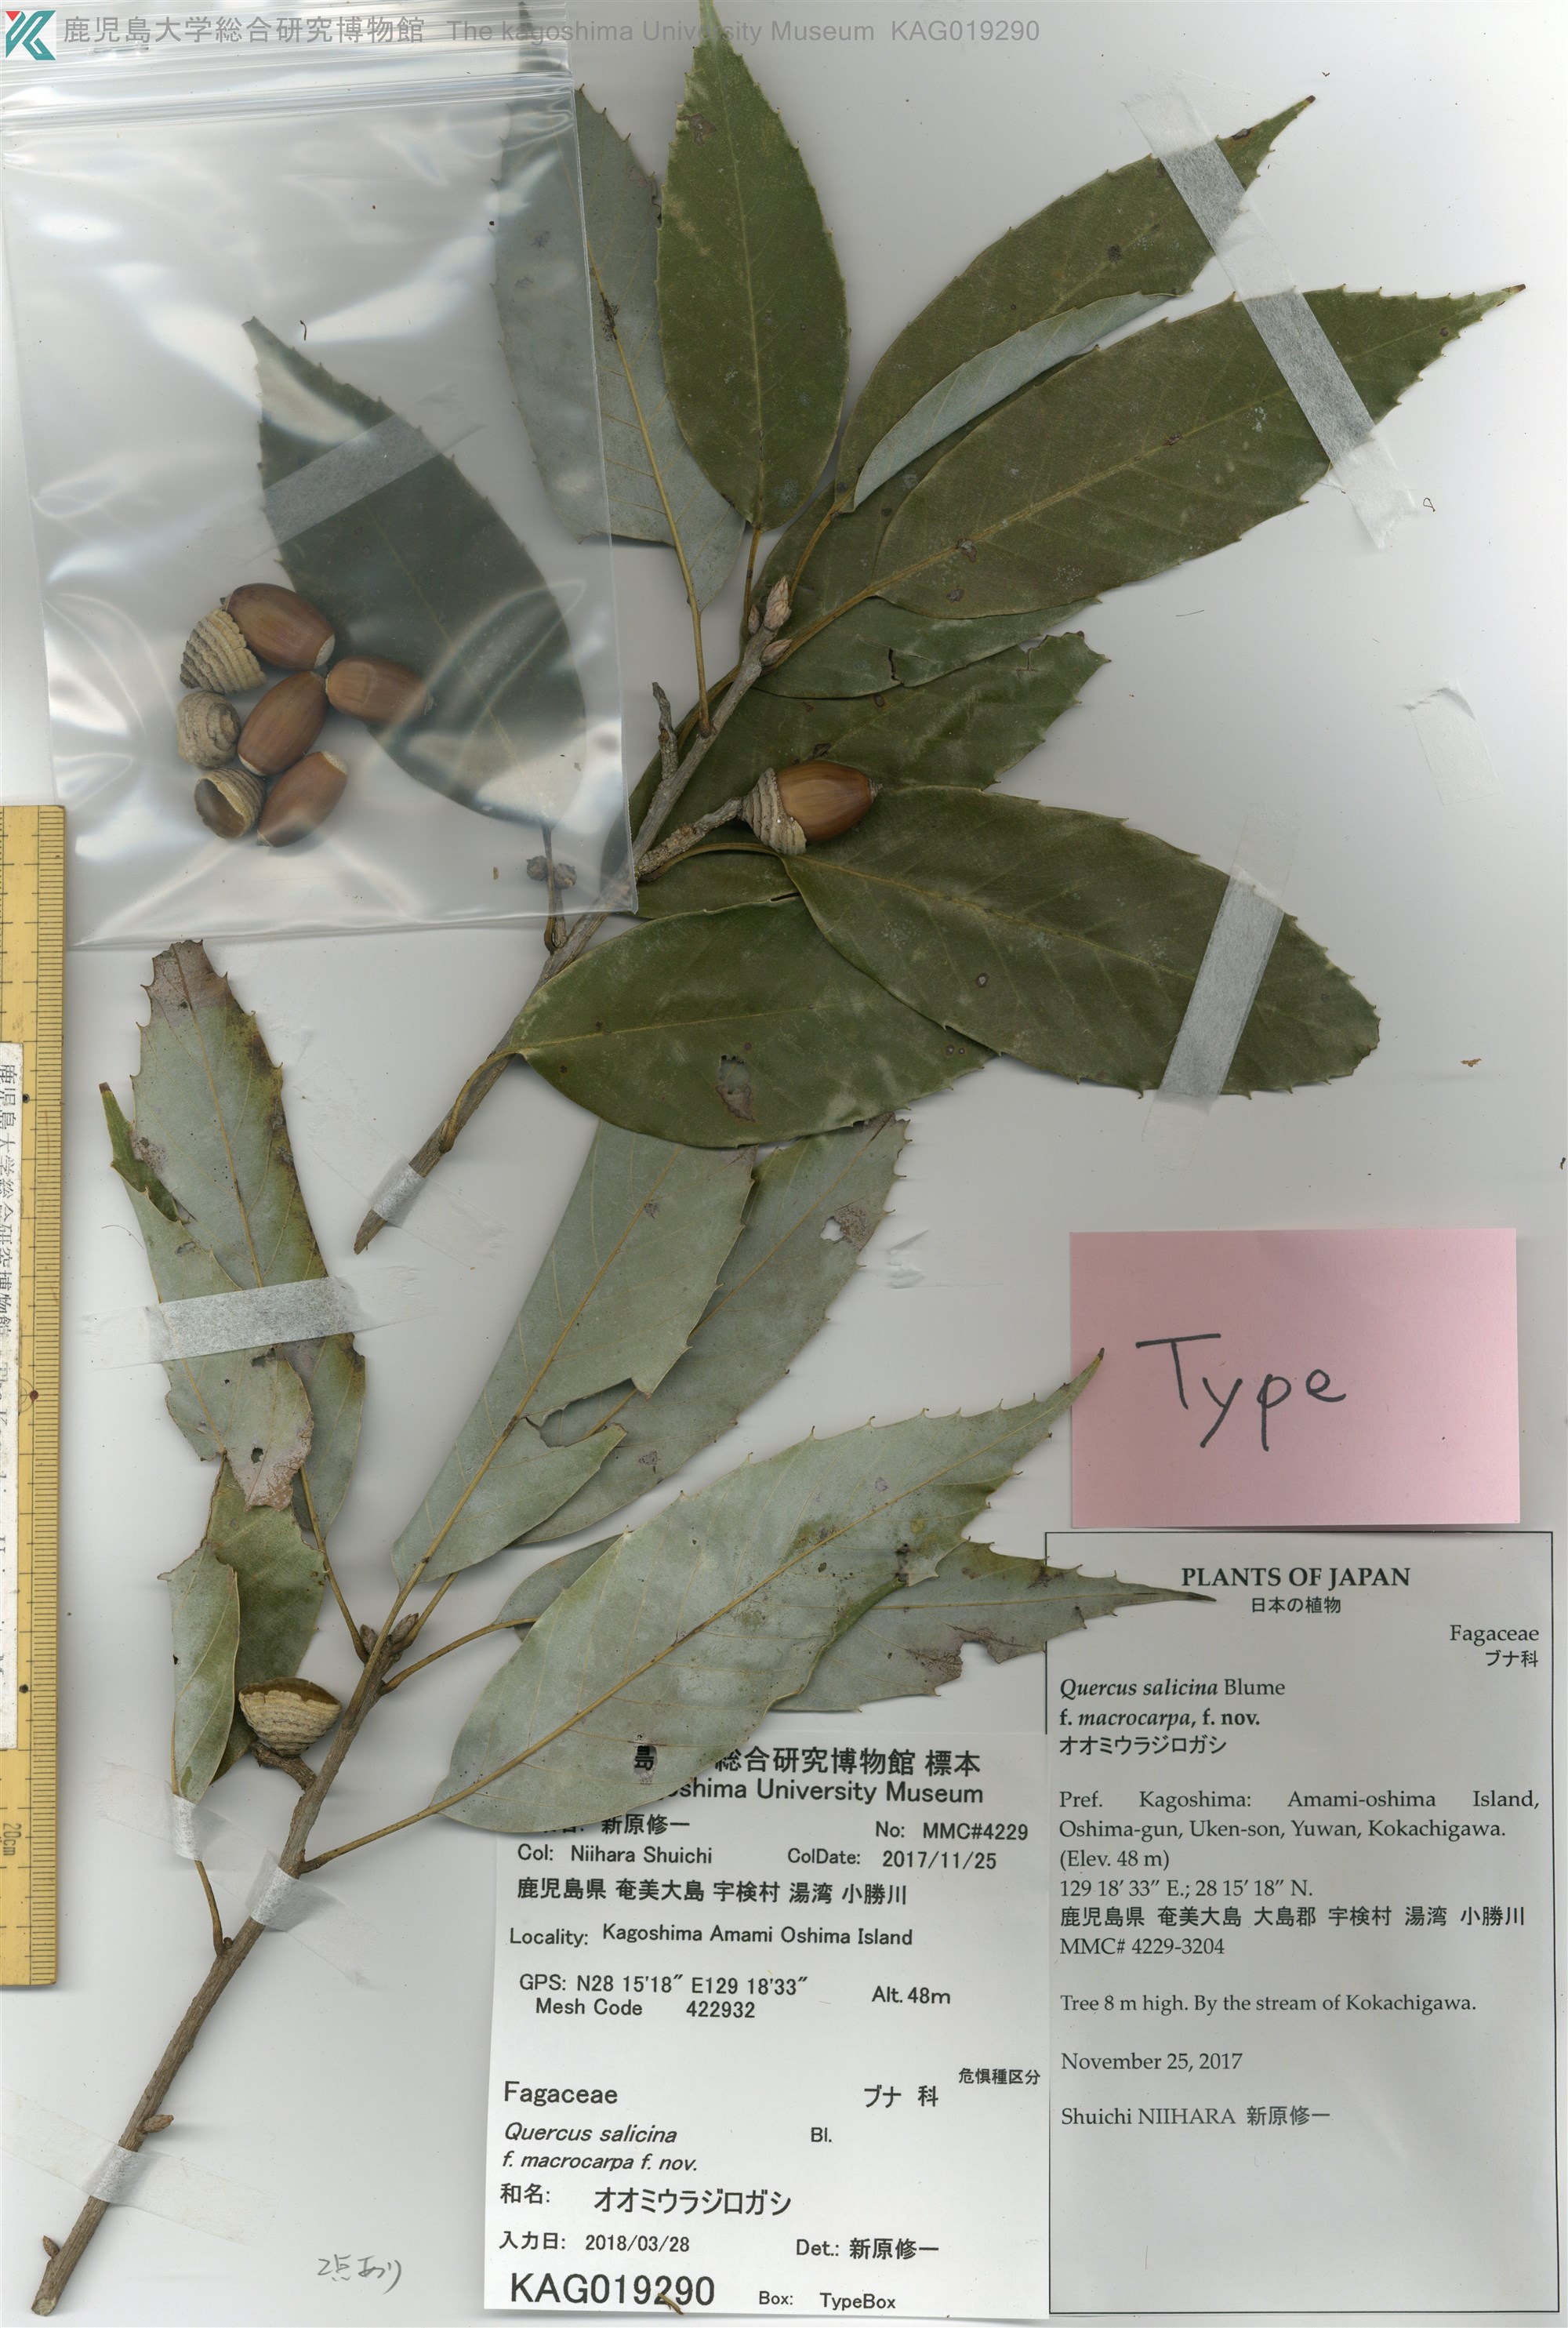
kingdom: Plantae
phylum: Tracheophyta
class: Magnoliopsida
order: Fagales
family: Fagaceae
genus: Quercus
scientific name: Quercus salicina
